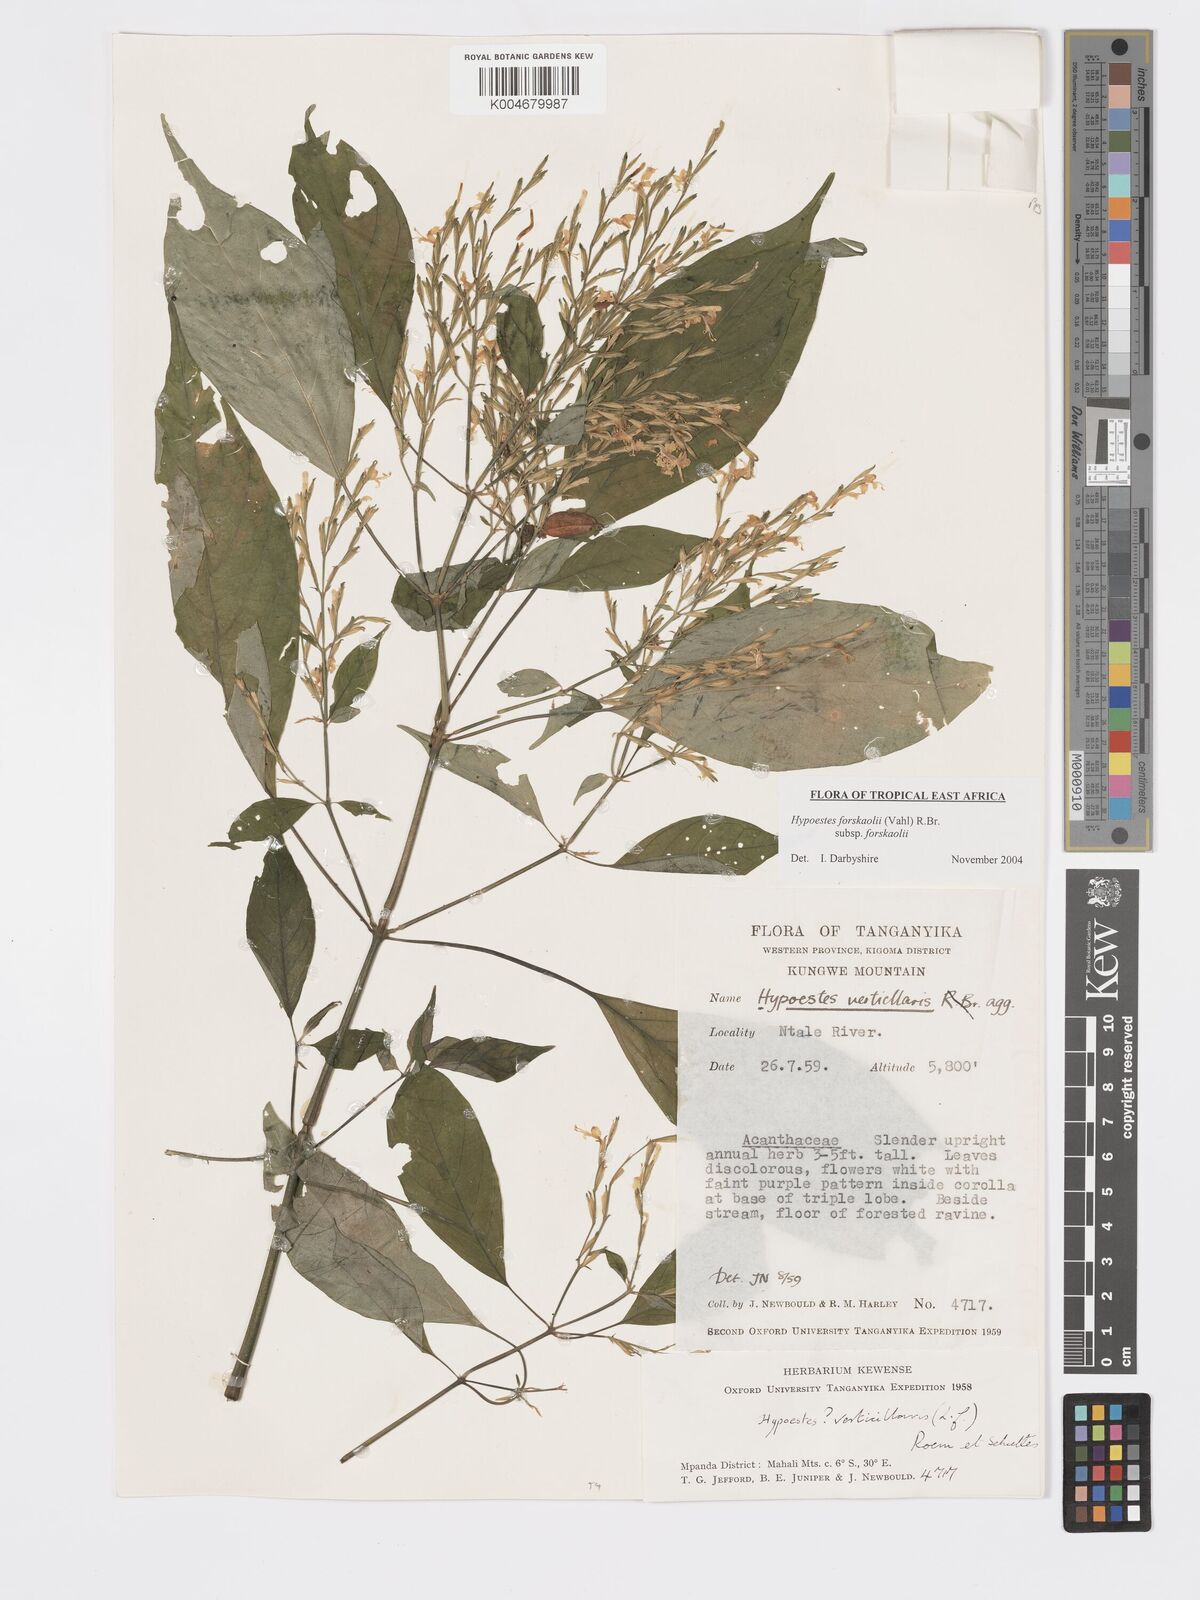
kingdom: Plantae
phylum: Tracheophyta
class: Magnoliopsida
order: Lamiales
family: Acanthaceae
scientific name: Acanthaceae
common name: Acanthaceae
